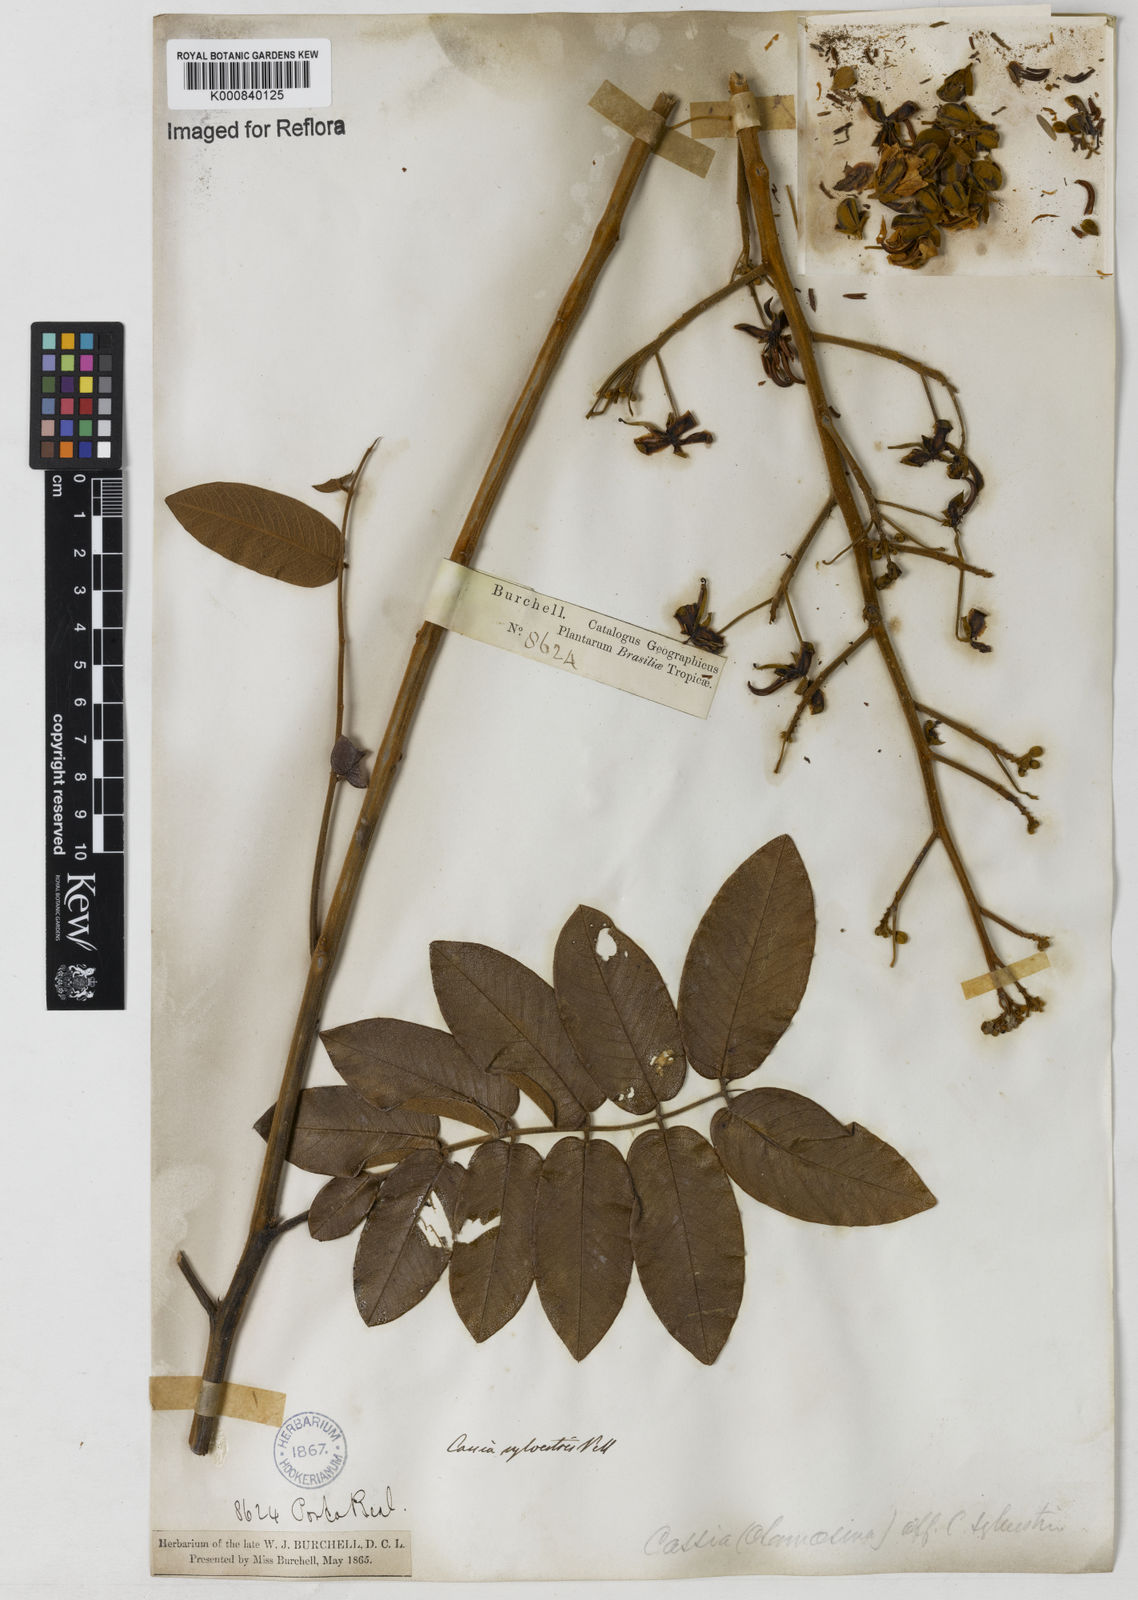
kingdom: Plantae
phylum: Tracheophyta
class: Magnoliopsida
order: Fabales
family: Fabaceae
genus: Senna
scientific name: Senna silvestris
